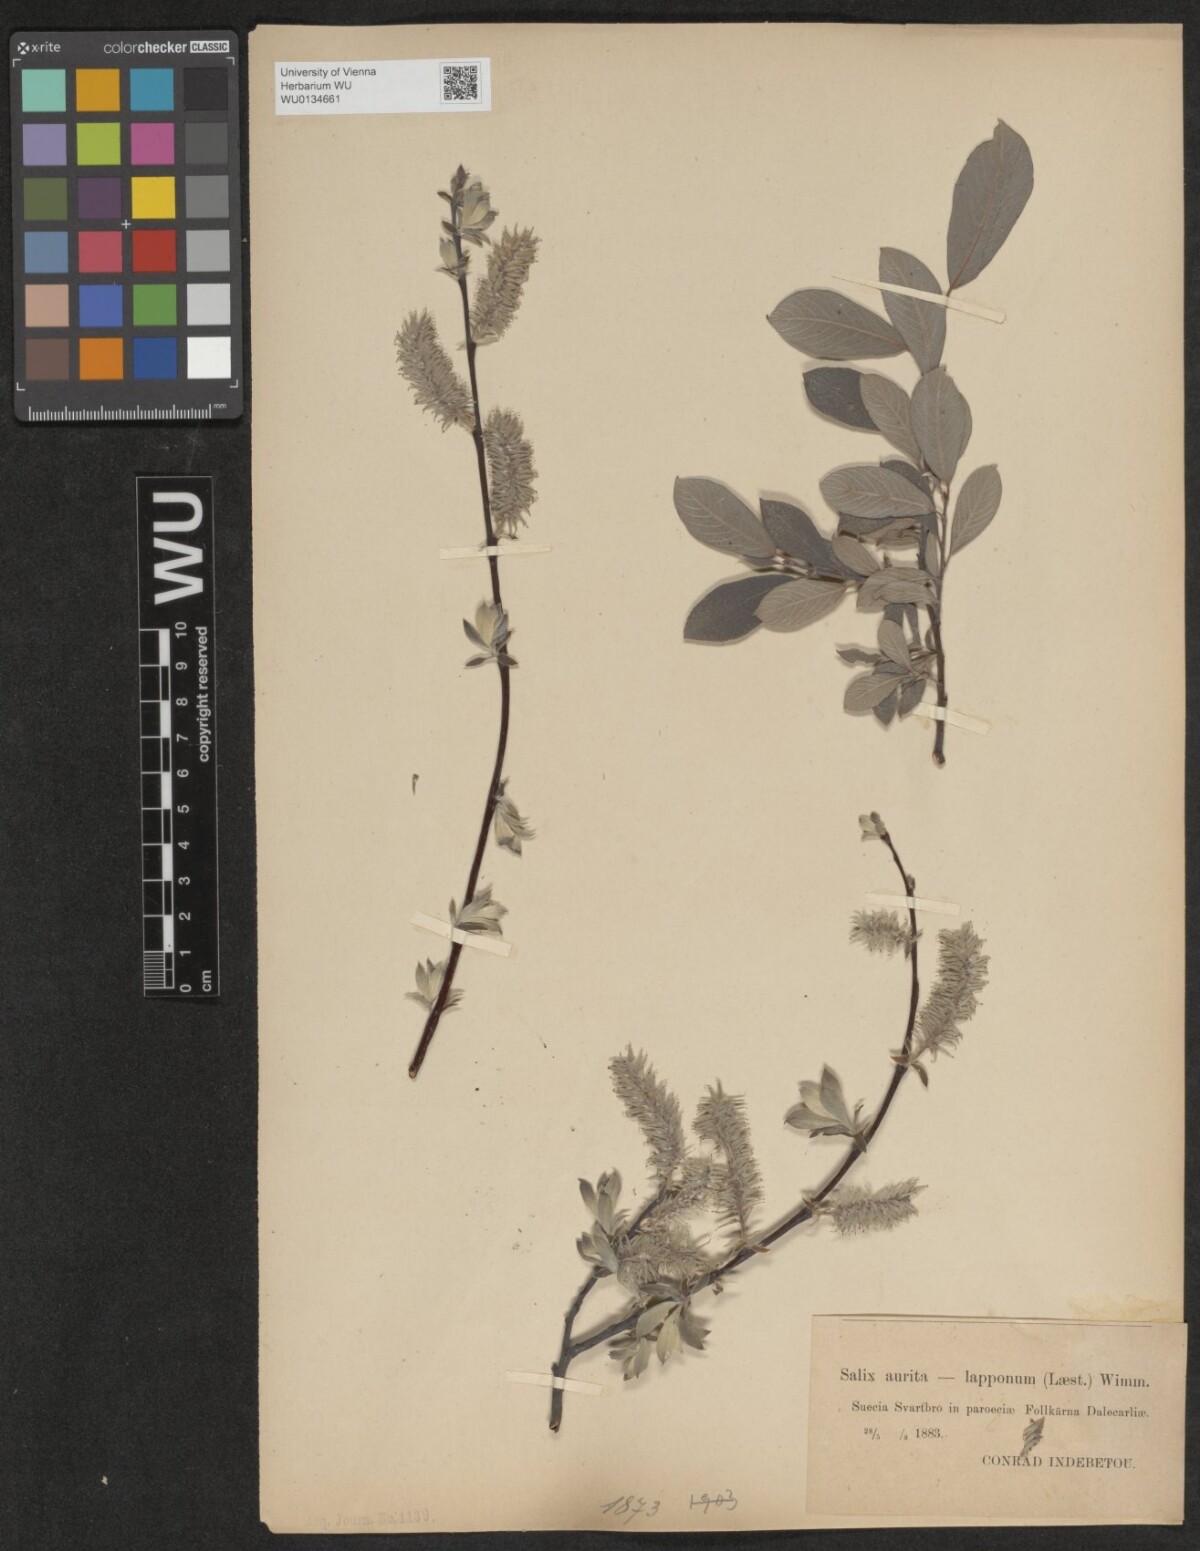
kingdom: Plantae
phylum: Tracheophyta
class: Magnoliopsida
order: Malpighiales
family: Salicaceae
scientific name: Salicaceae
